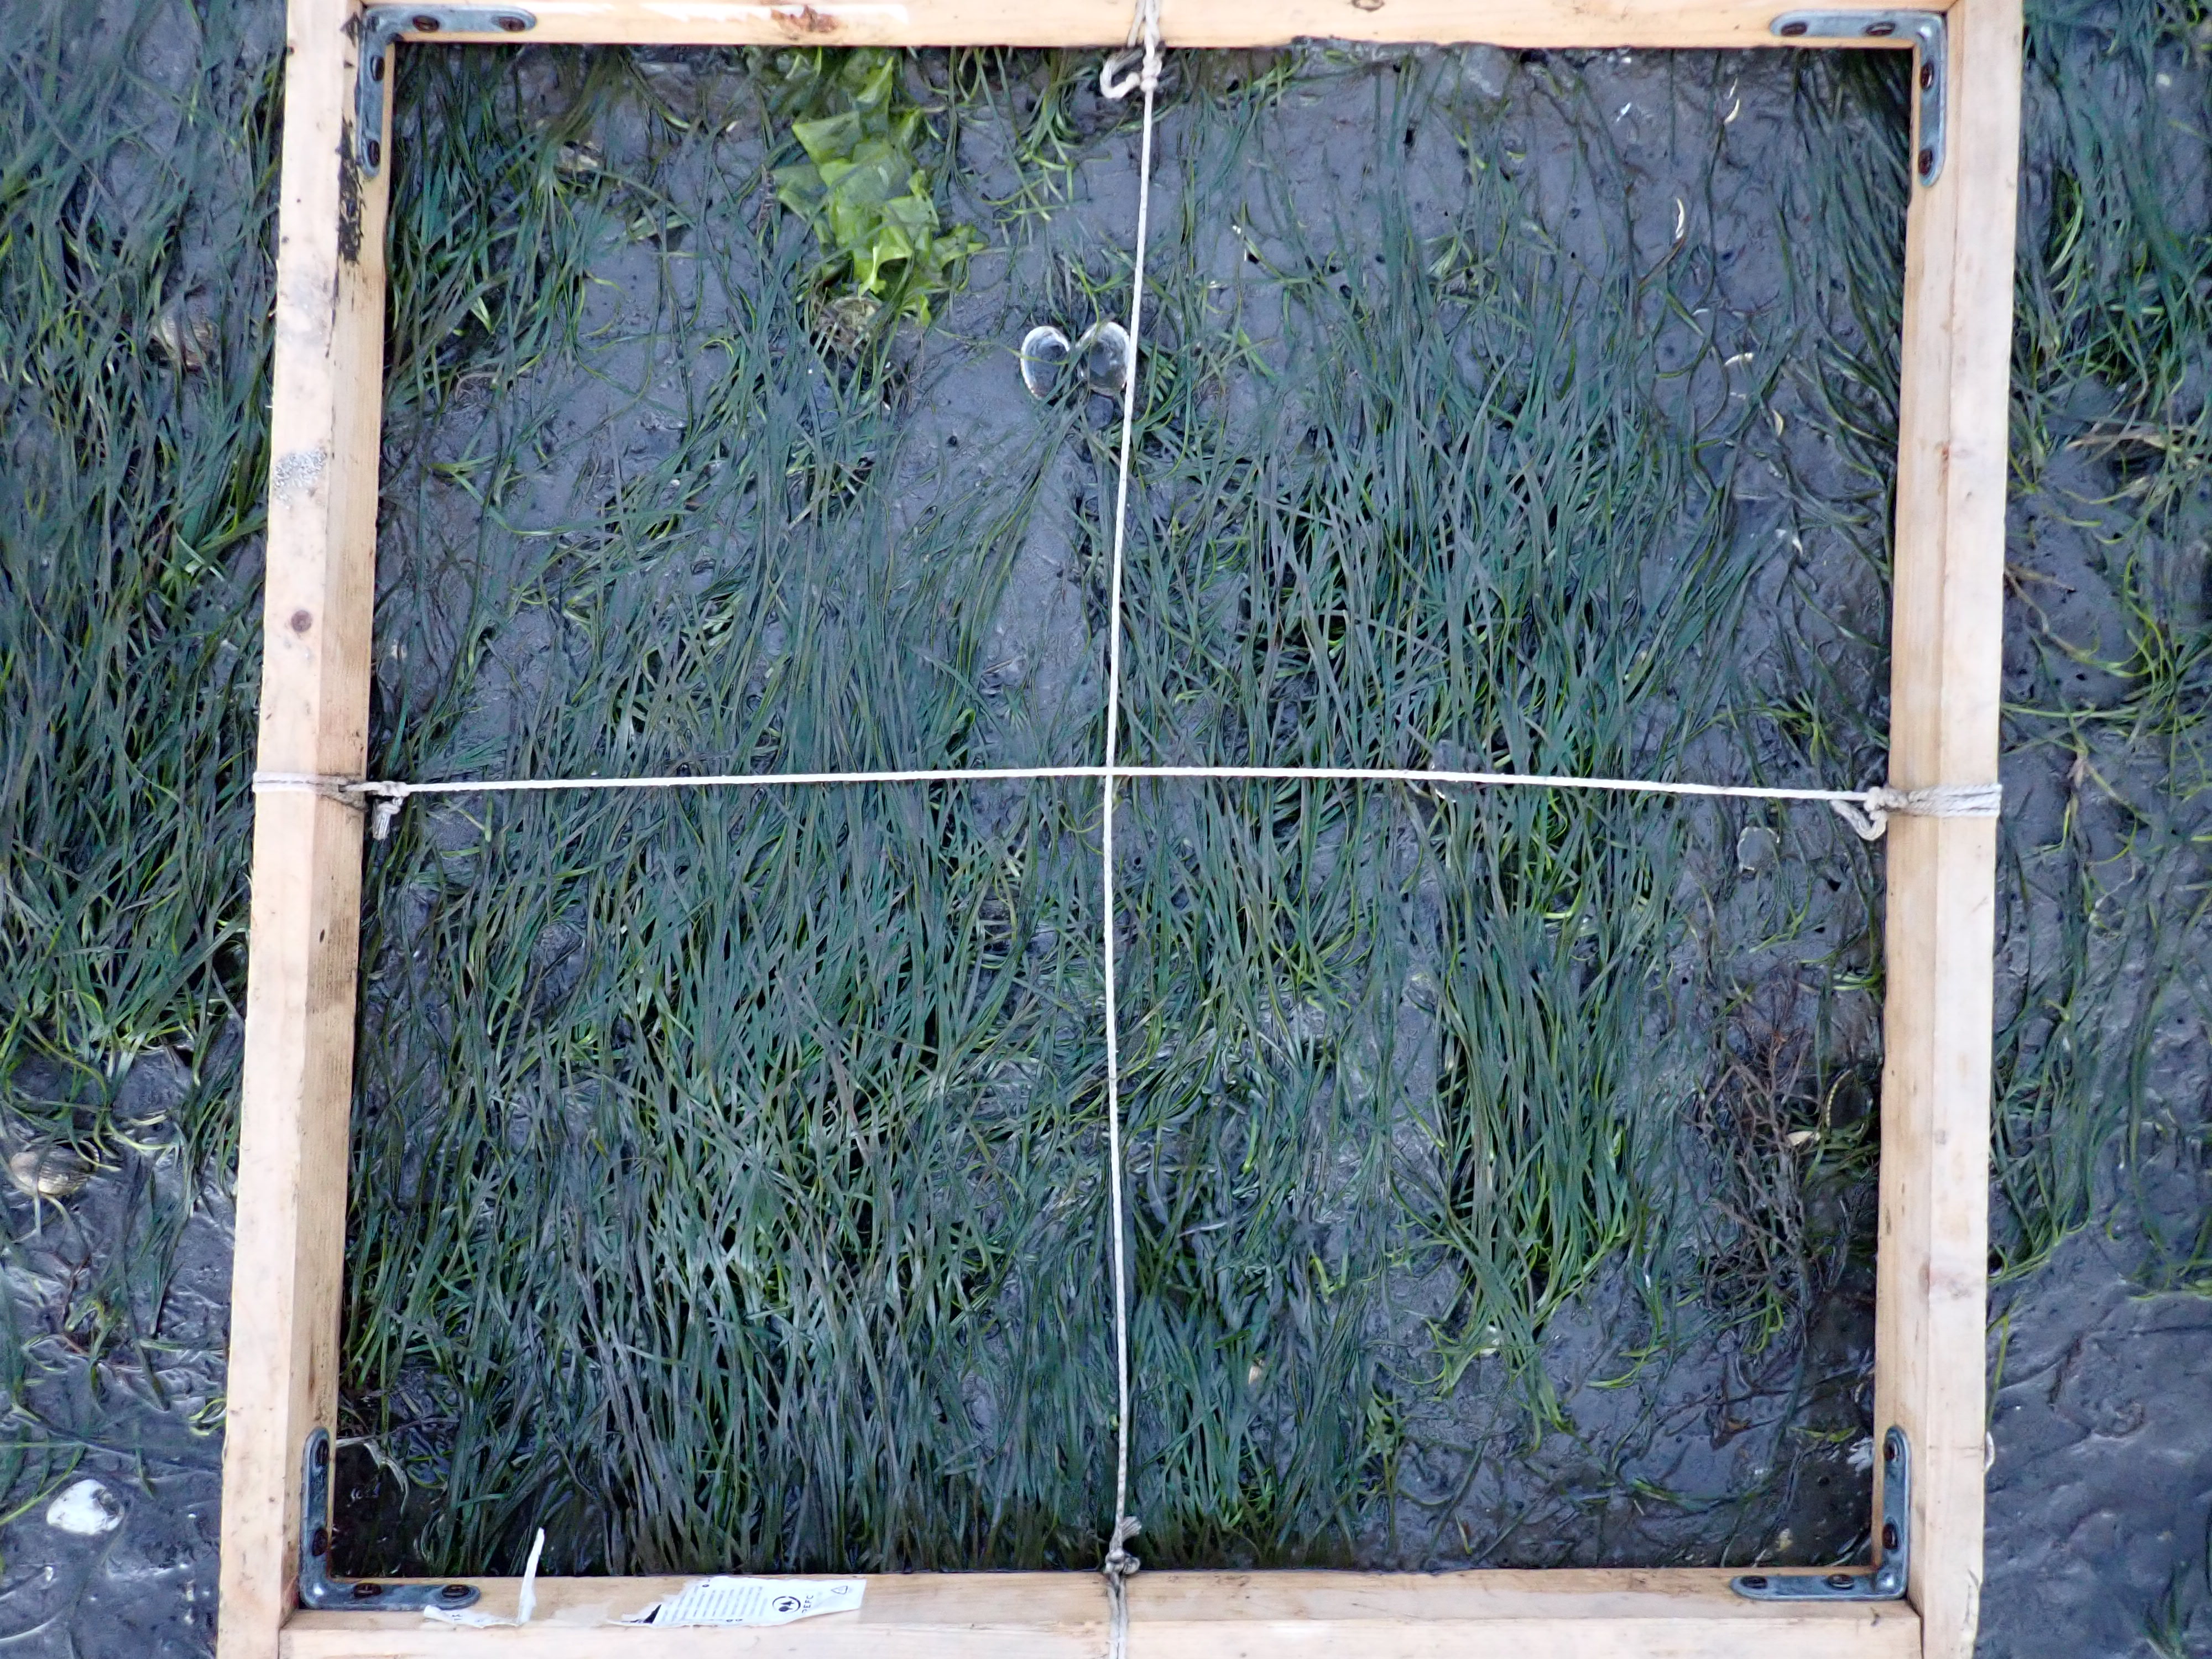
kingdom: Plantae
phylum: Tracheophyta
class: Liliopsida
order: Alismatales
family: Zosteraceae
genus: Zostera
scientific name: Zostera noltii
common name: Dwarf eelgrass
